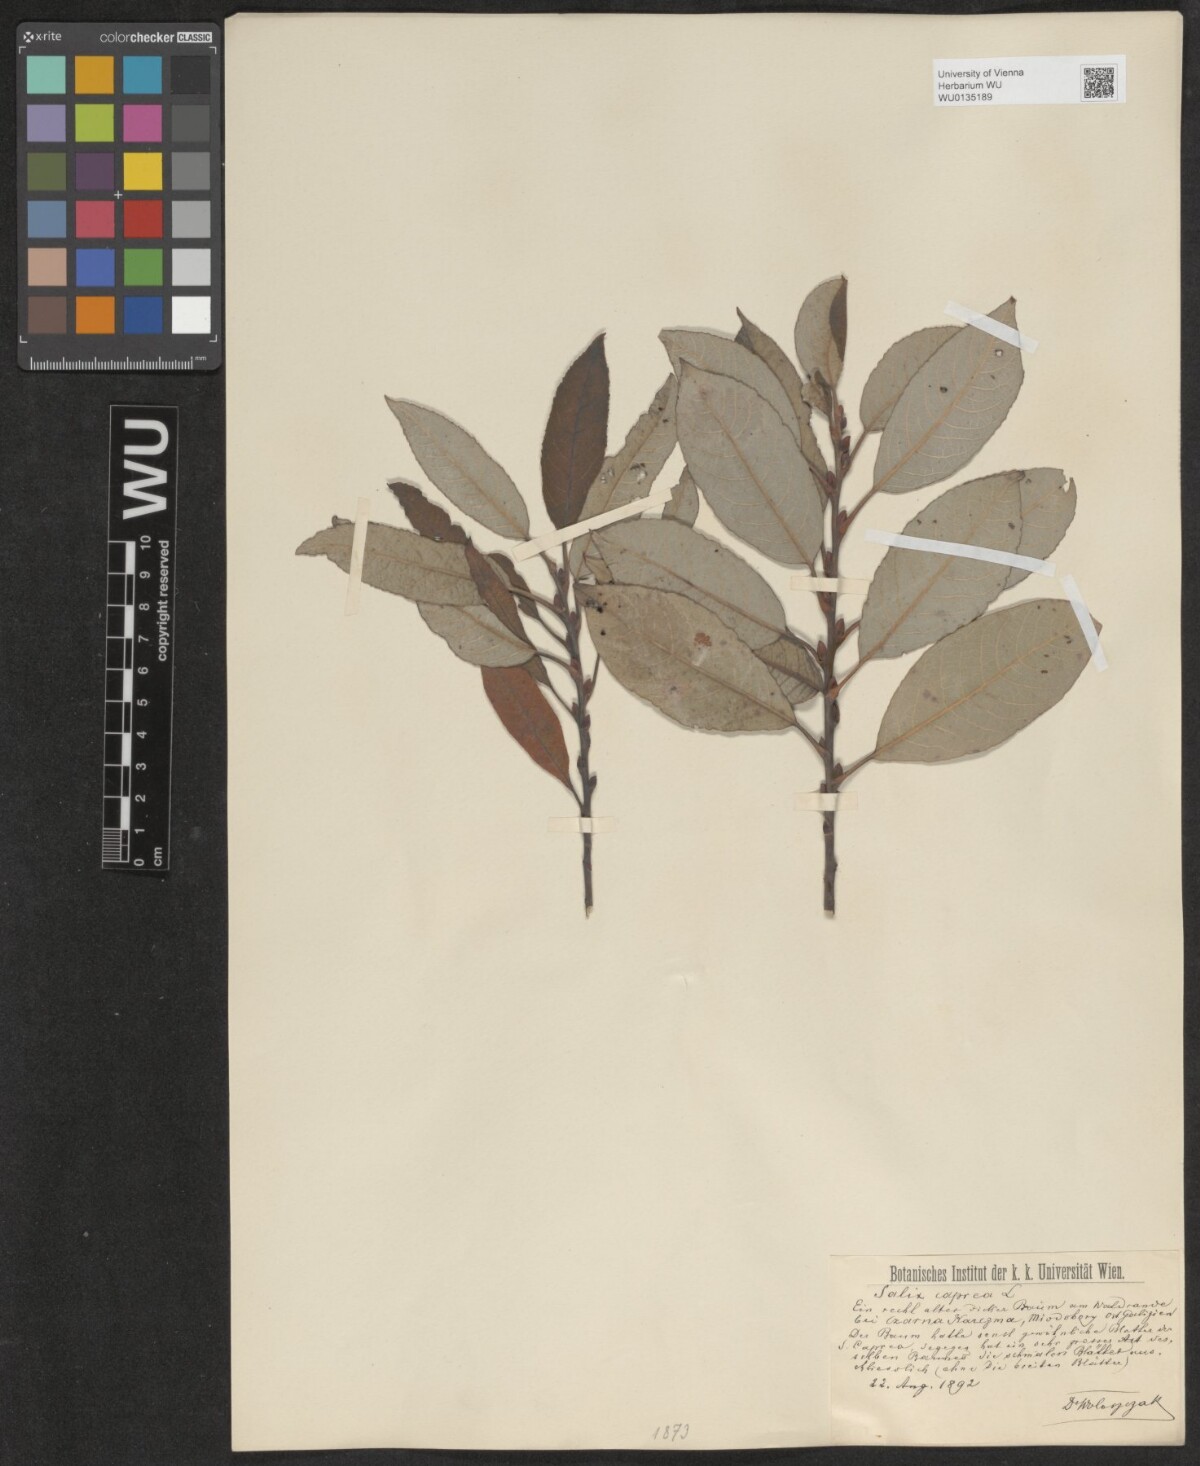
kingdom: Plantae
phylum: Tracheophyta
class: Magnoliopsida
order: Malpighiales
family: Salicaceae
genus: Salix
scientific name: Salix caprea
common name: Goat willow
